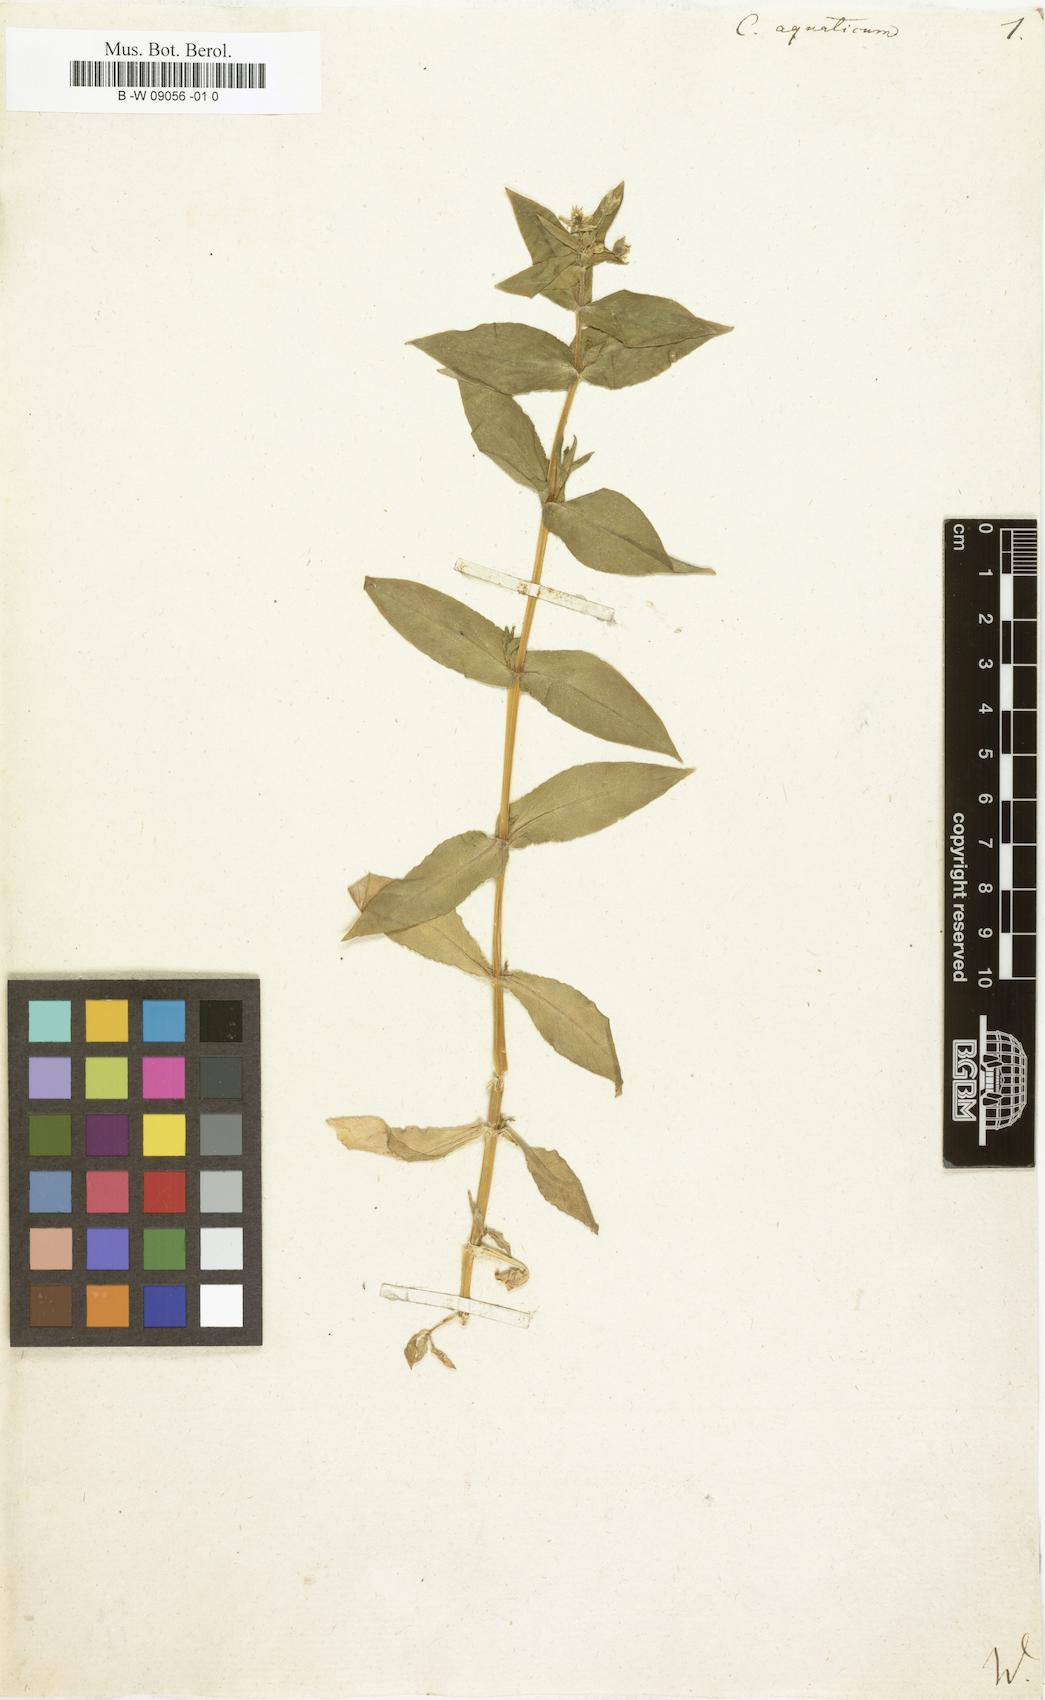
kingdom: Plantae
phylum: Tracheophyta
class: Magnoliopsida
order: Caryophyllales
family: Caryophyllaceae
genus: Stellaria
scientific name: Stellaria aquatica
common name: Water chickweed
